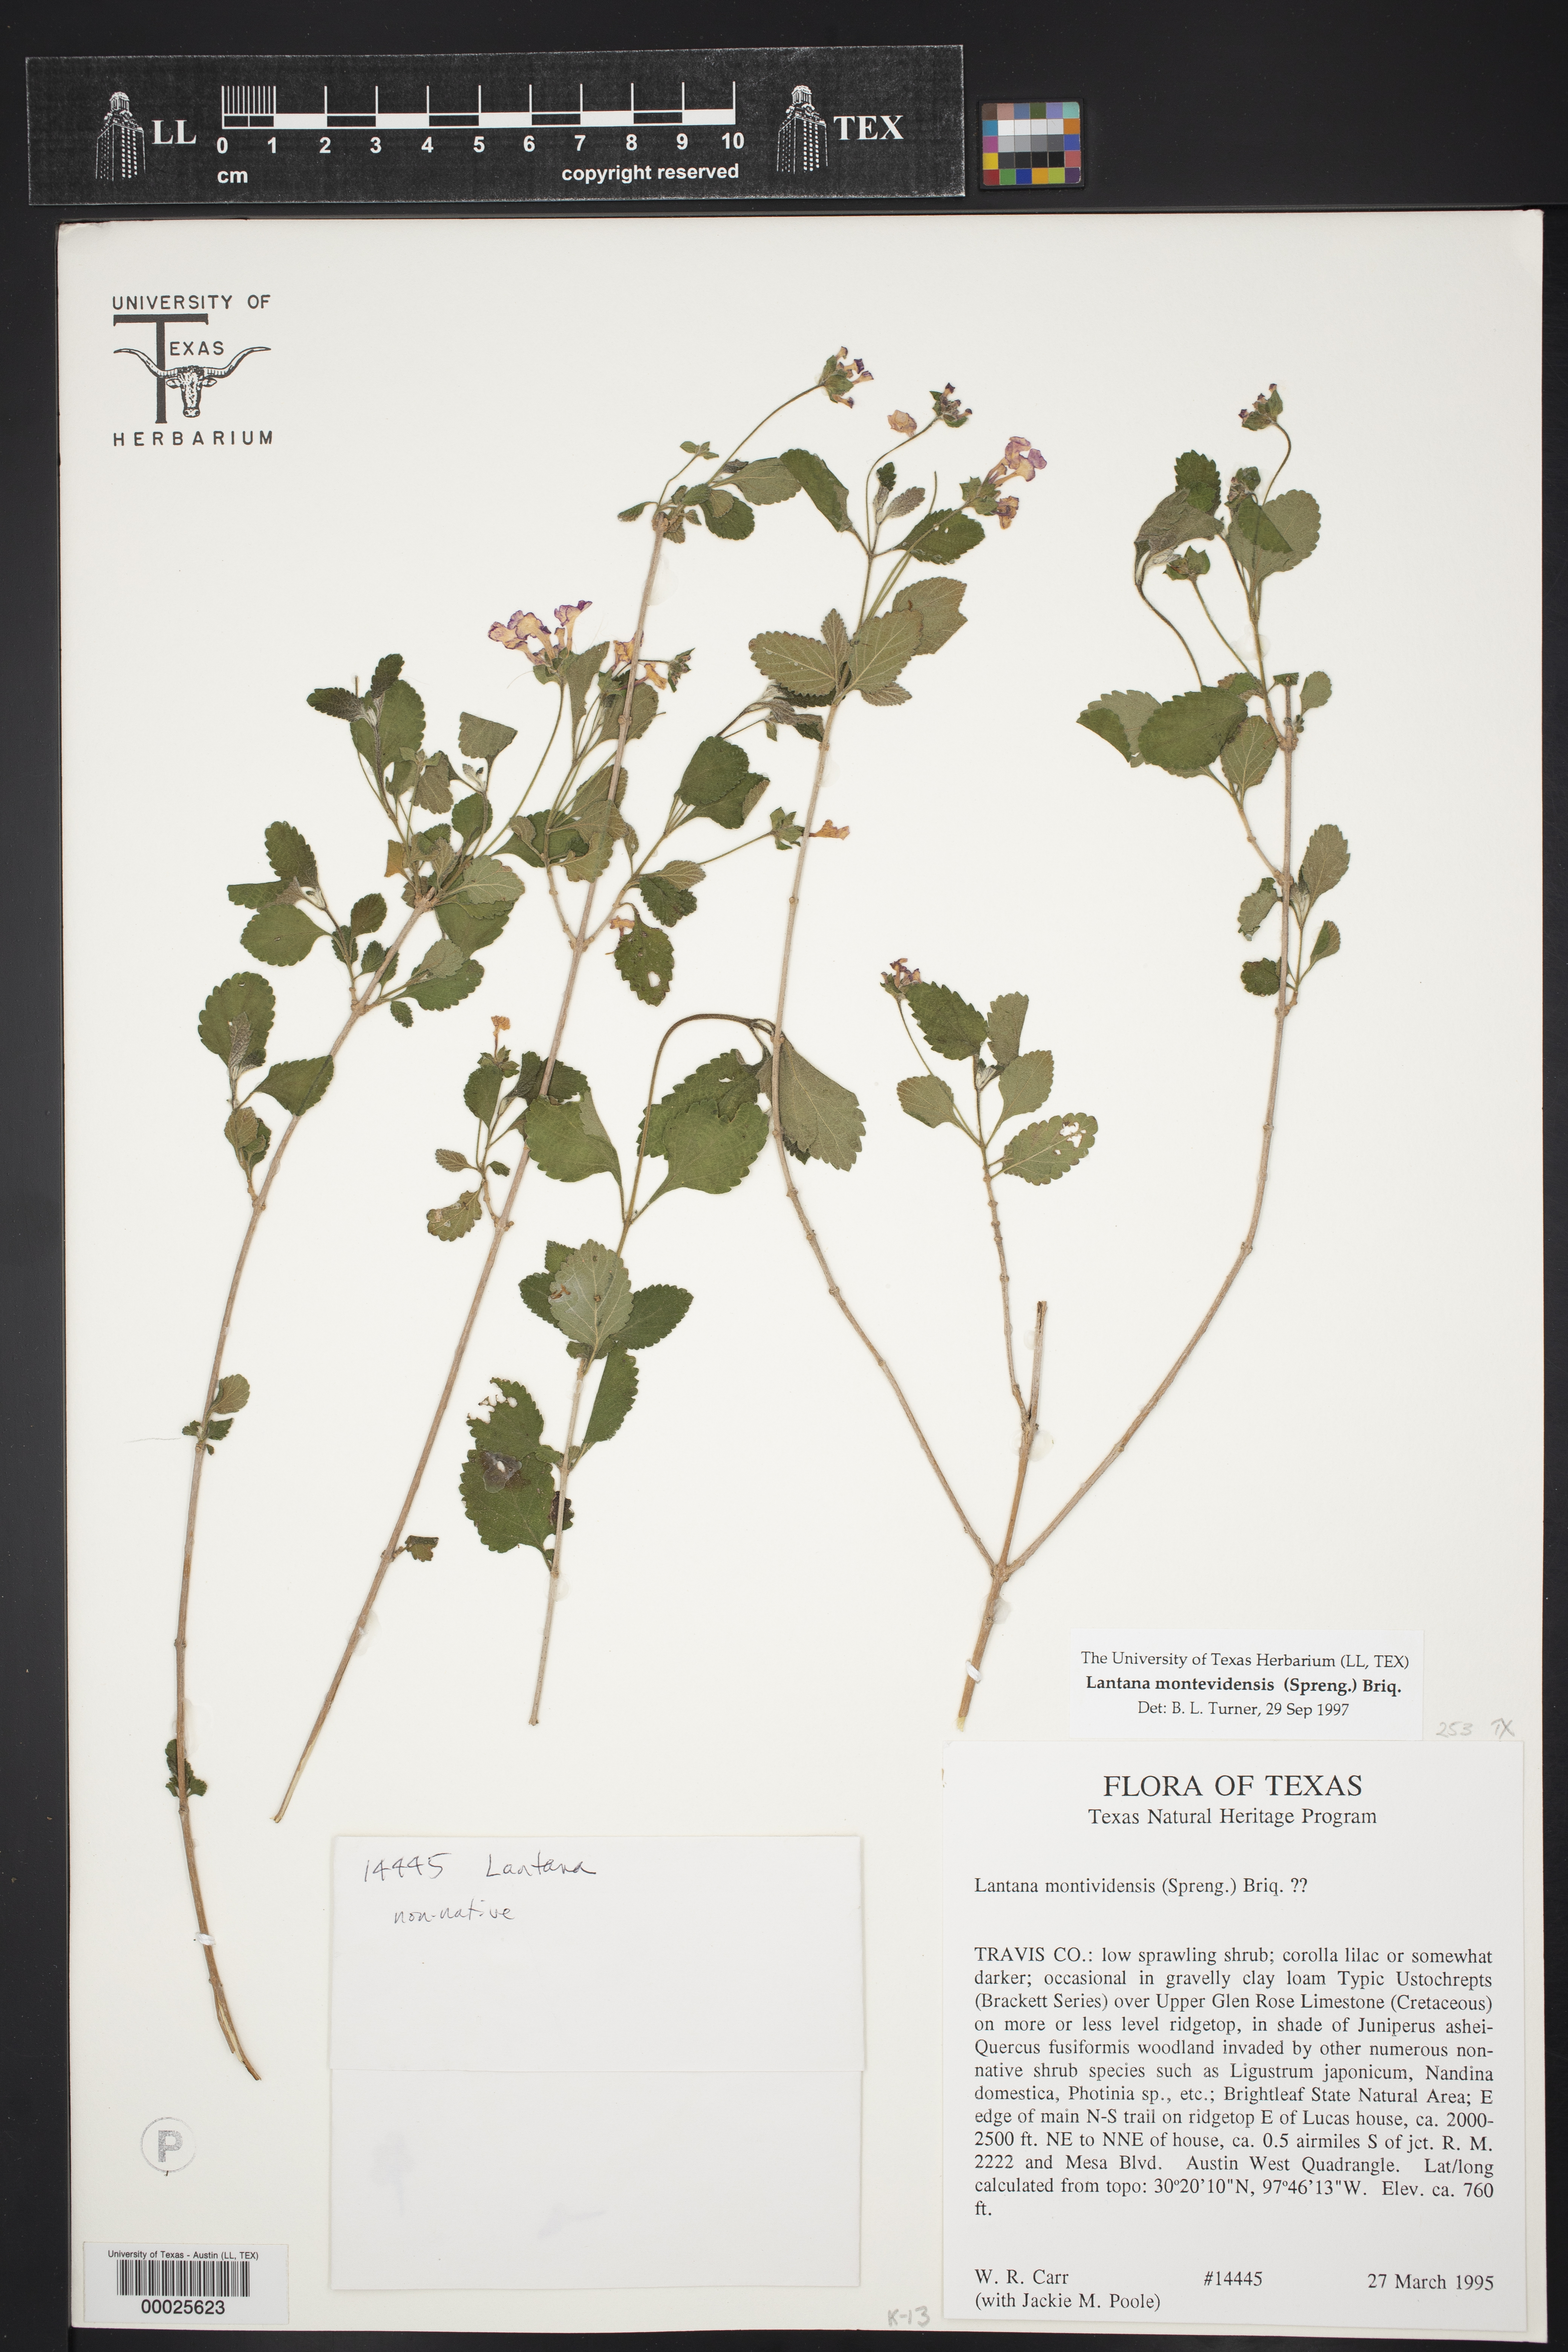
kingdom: Plantae
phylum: Tracheophyta
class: Magnoliopsida
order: Lamiales
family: Verbenaceae
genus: Lantana
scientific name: Lantana montevidensis
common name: Trailing shrubverbena
